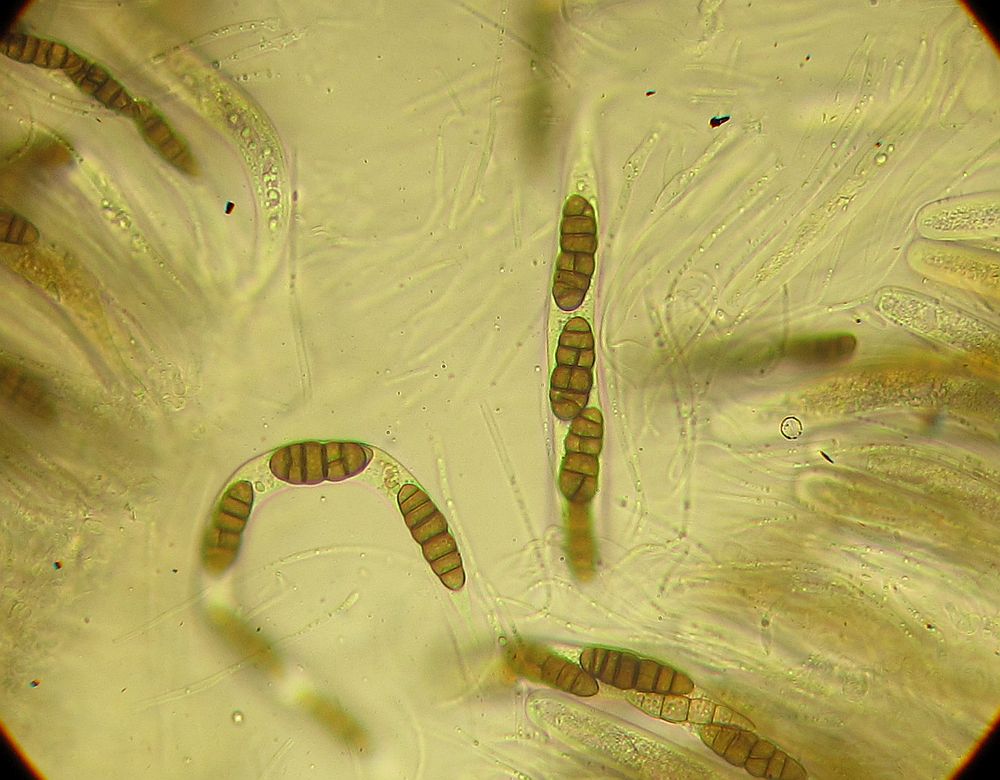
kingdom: Fungi
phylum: Ascomycota
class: Dothideomycetes
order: Pleosporales
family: Lophiostomataceae
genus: Lophiostoma
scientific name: Lophiostoma compressum
